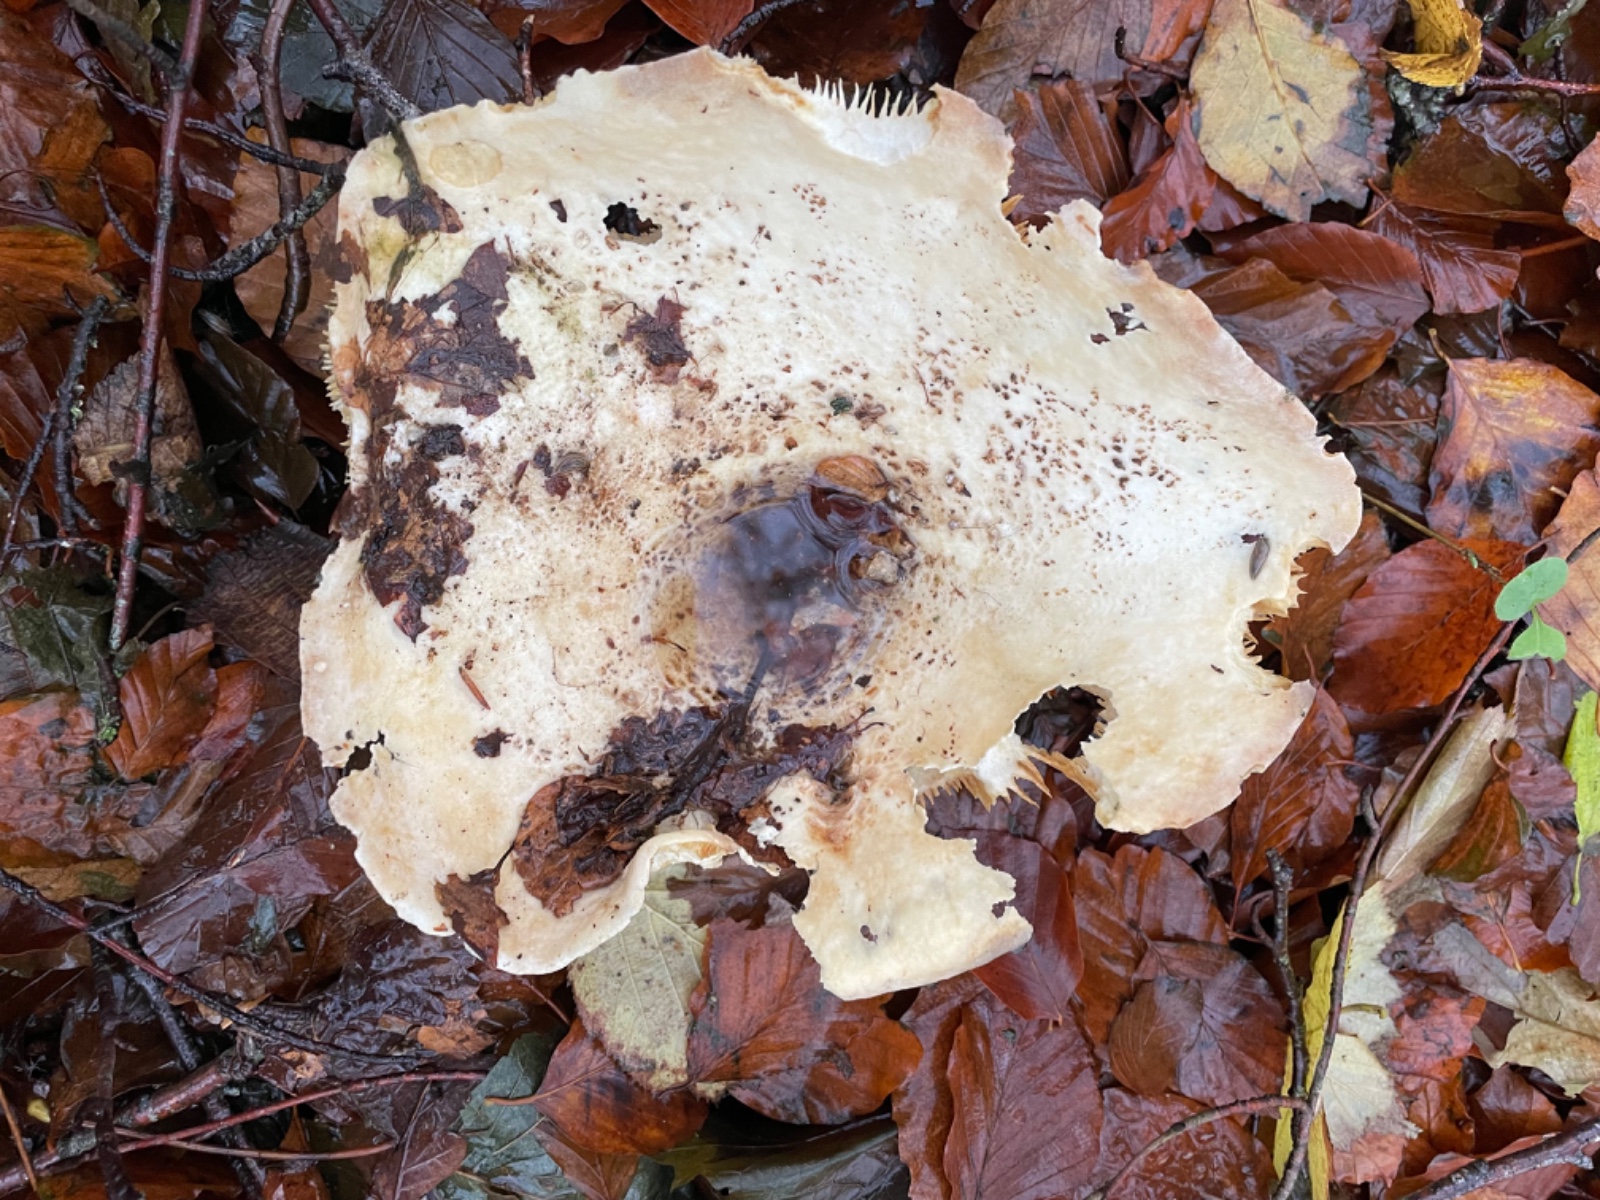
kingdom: Fungi
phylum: Basidiomycota
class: Agaricomycetes
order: Russulales
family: Russulaceae
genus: Lactifluus
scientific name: Lactifluus bertillonii
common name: blødfiltet mælkehat
